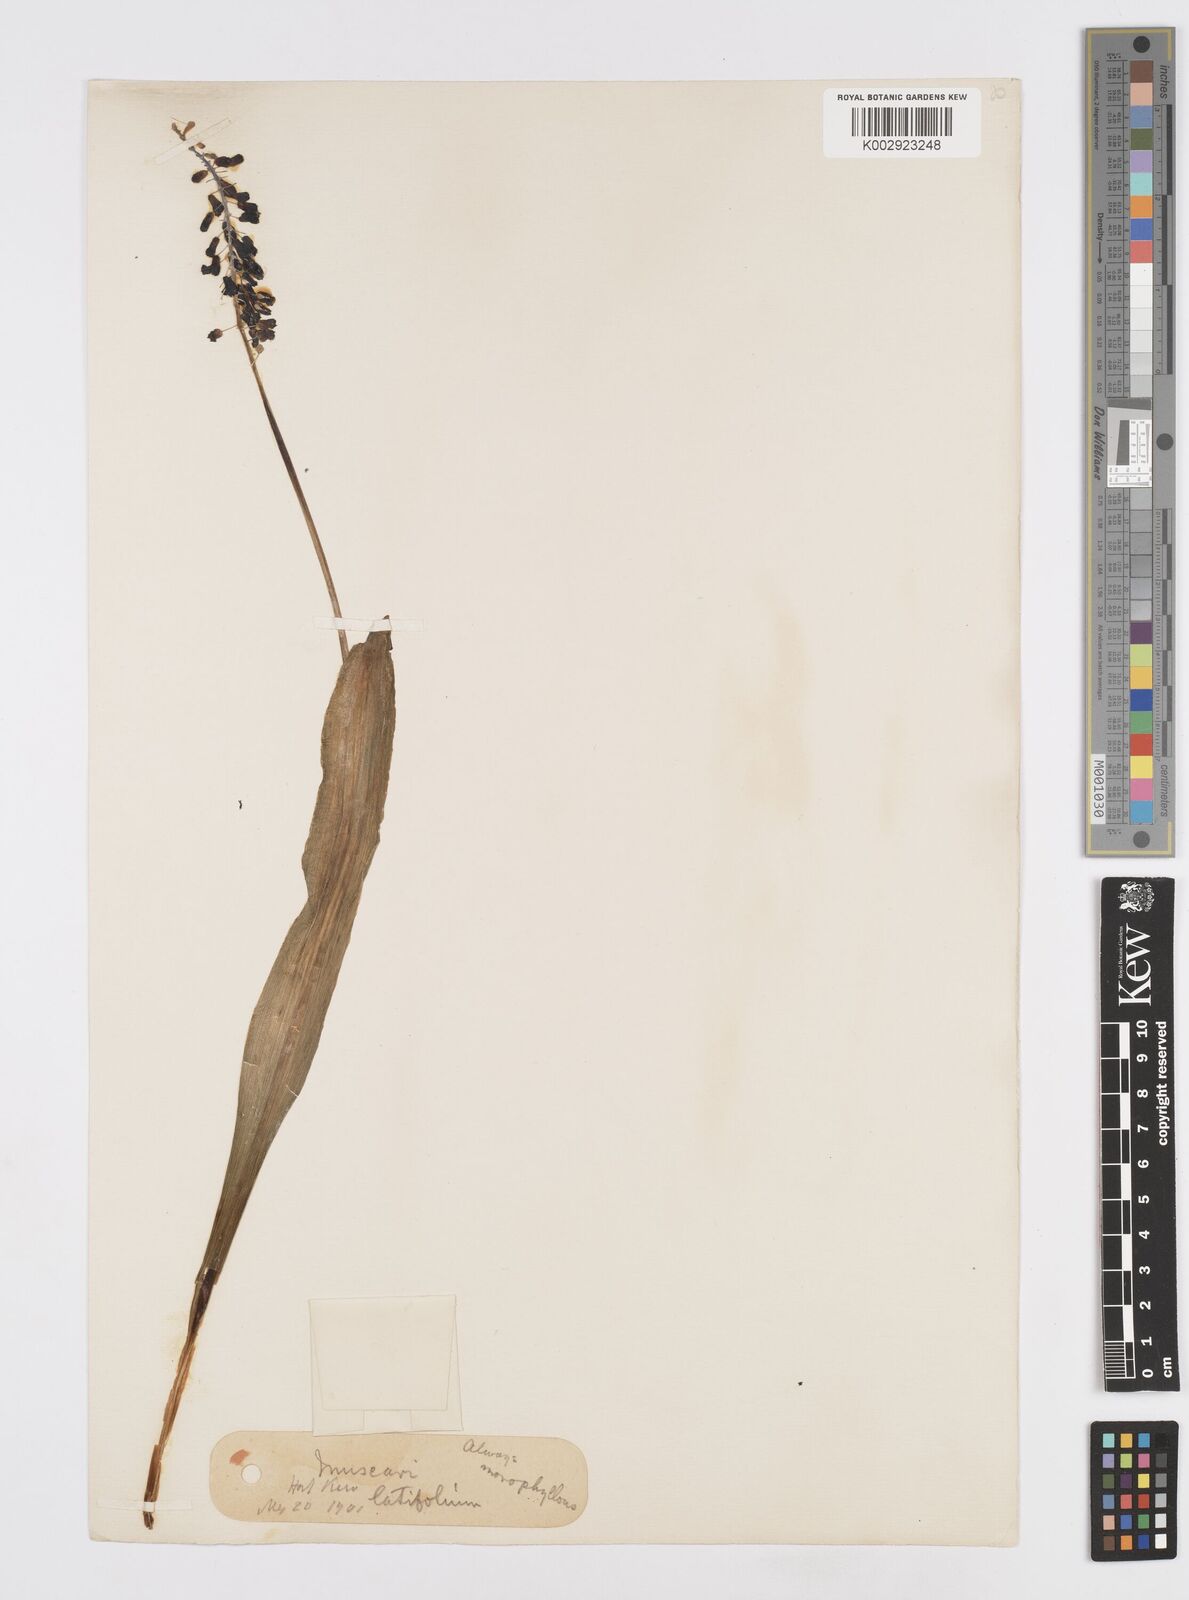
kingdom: Plantae
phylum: Tracheophyta
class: Liliopsida
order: Asparagales
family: Asparagaceae
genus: Muscari
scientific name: Muscari latifolium
